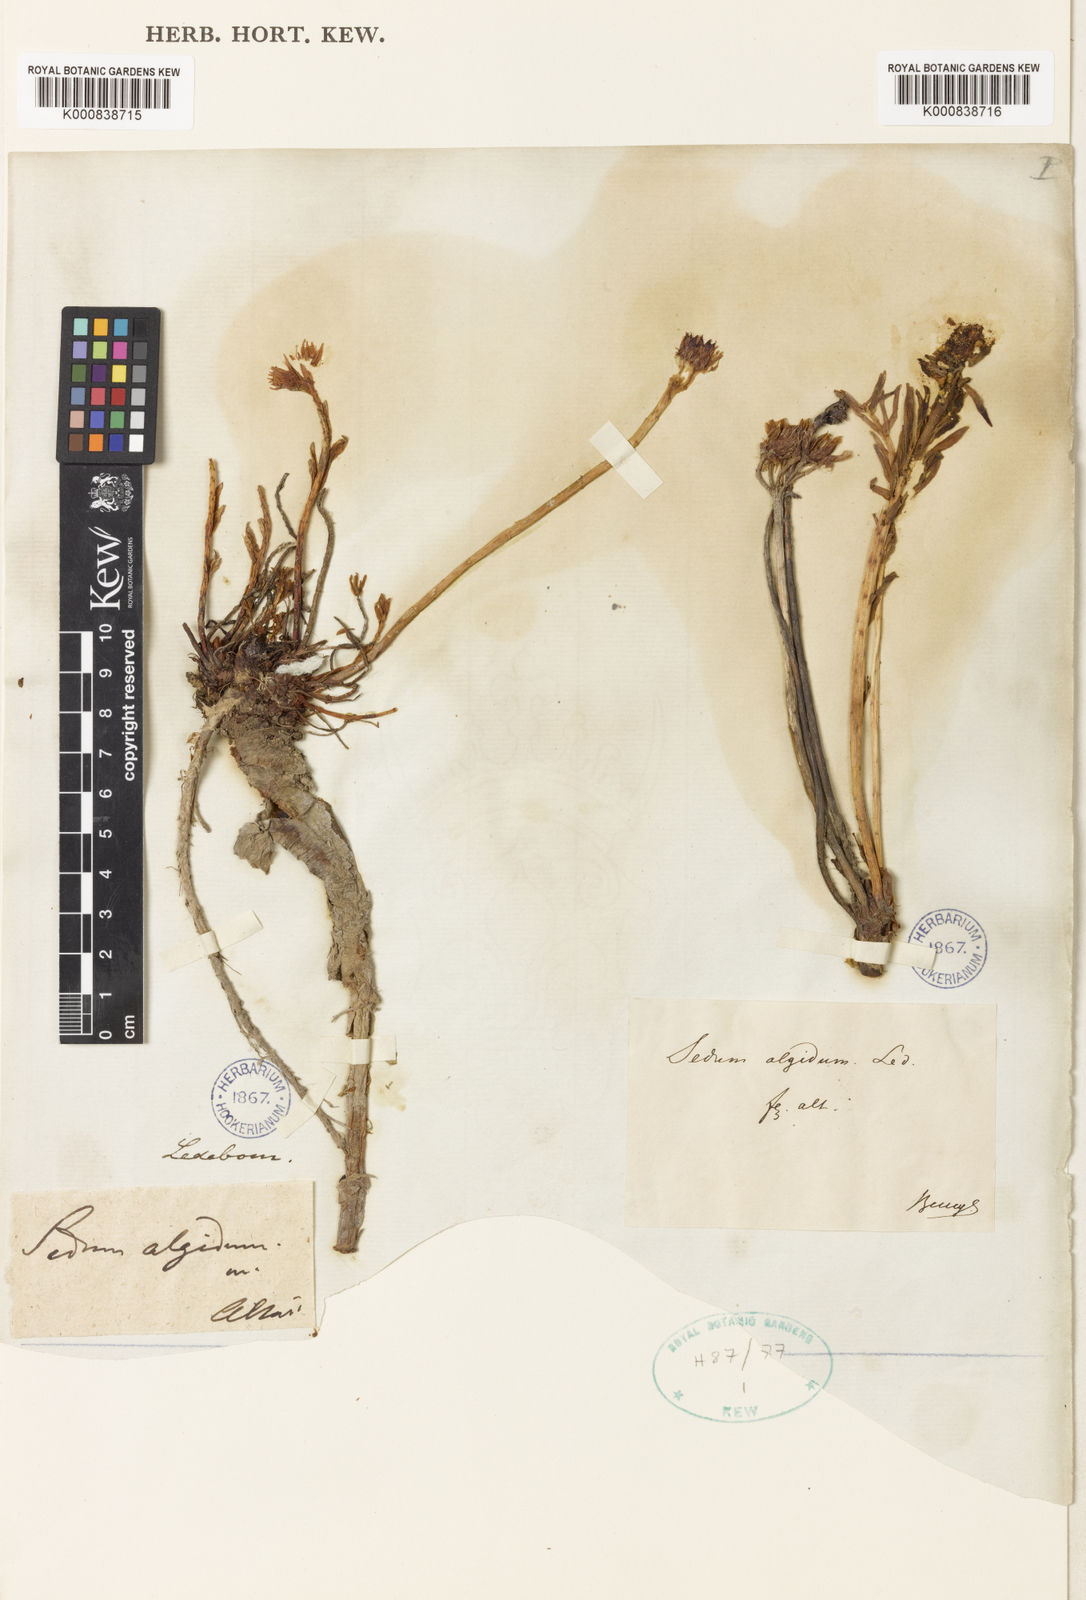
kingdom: Plantae
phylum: Tracheophyta
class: Magnoliopsida
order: Saxifragales
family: Crassulaceae
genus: Rhodiola
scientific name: Rhodiola algida
